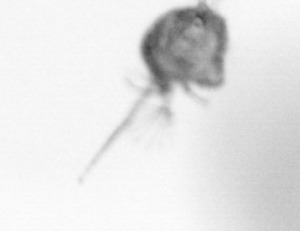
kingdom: Animalia
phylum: Arthropoda
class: Copepoda
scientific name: Copepoda
